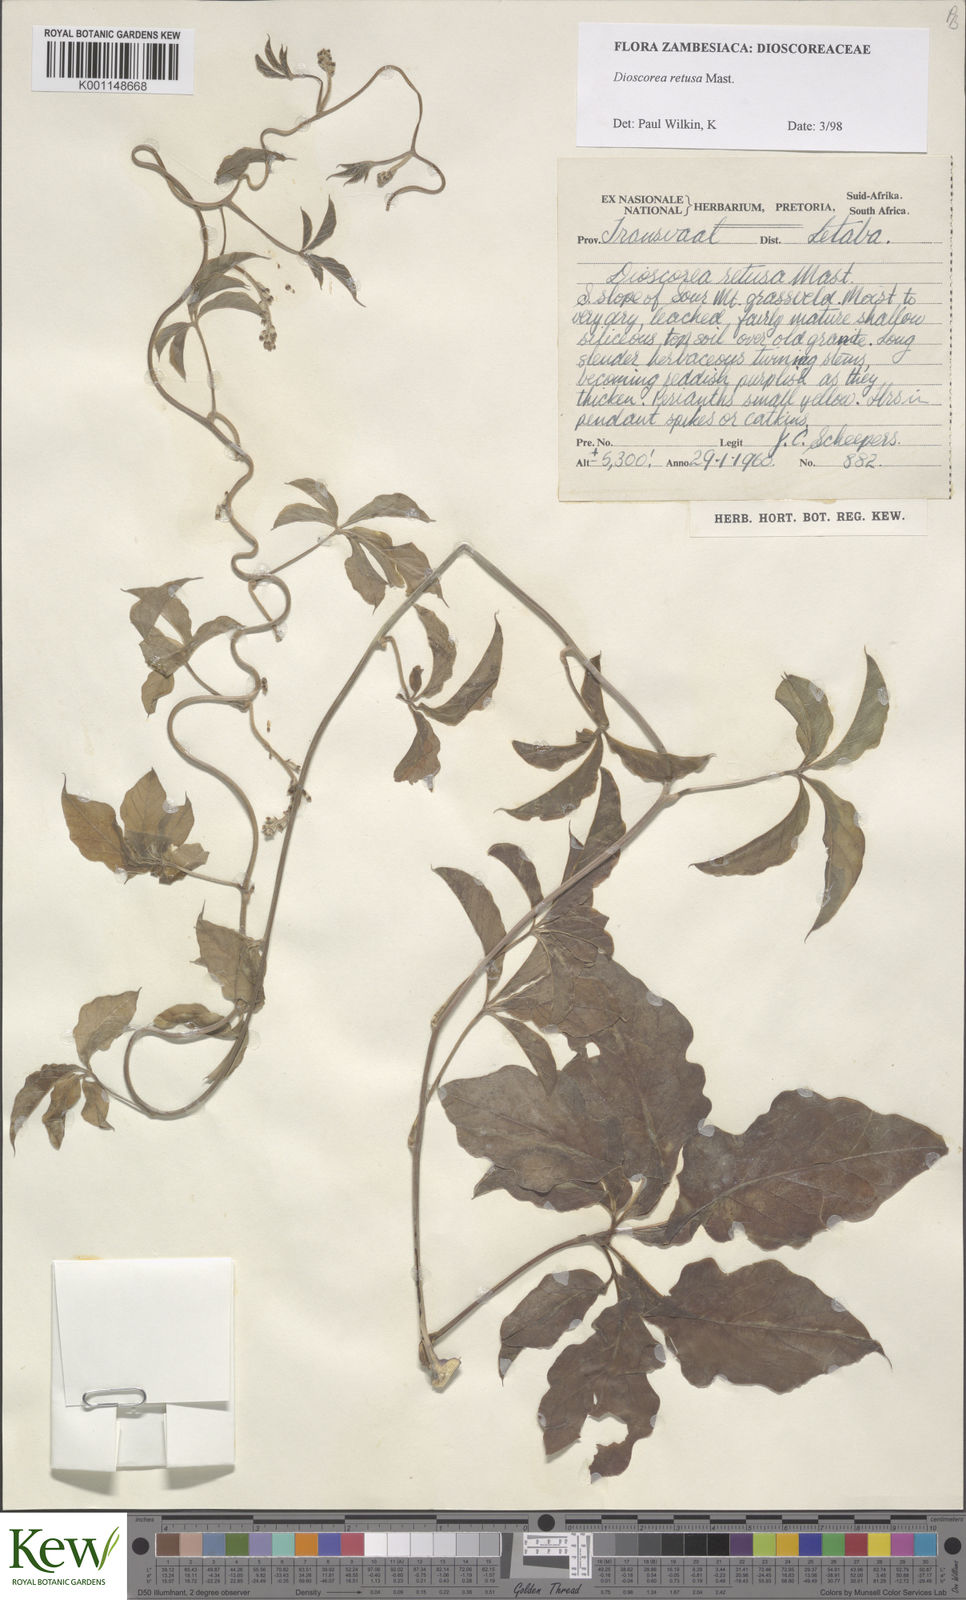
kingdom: Plantae
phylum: Tracheophyta
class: Liliopsida
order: Dioscoreales
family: Dioscoreaceae
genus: Dioscorea
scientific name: Dioscorea retusa
